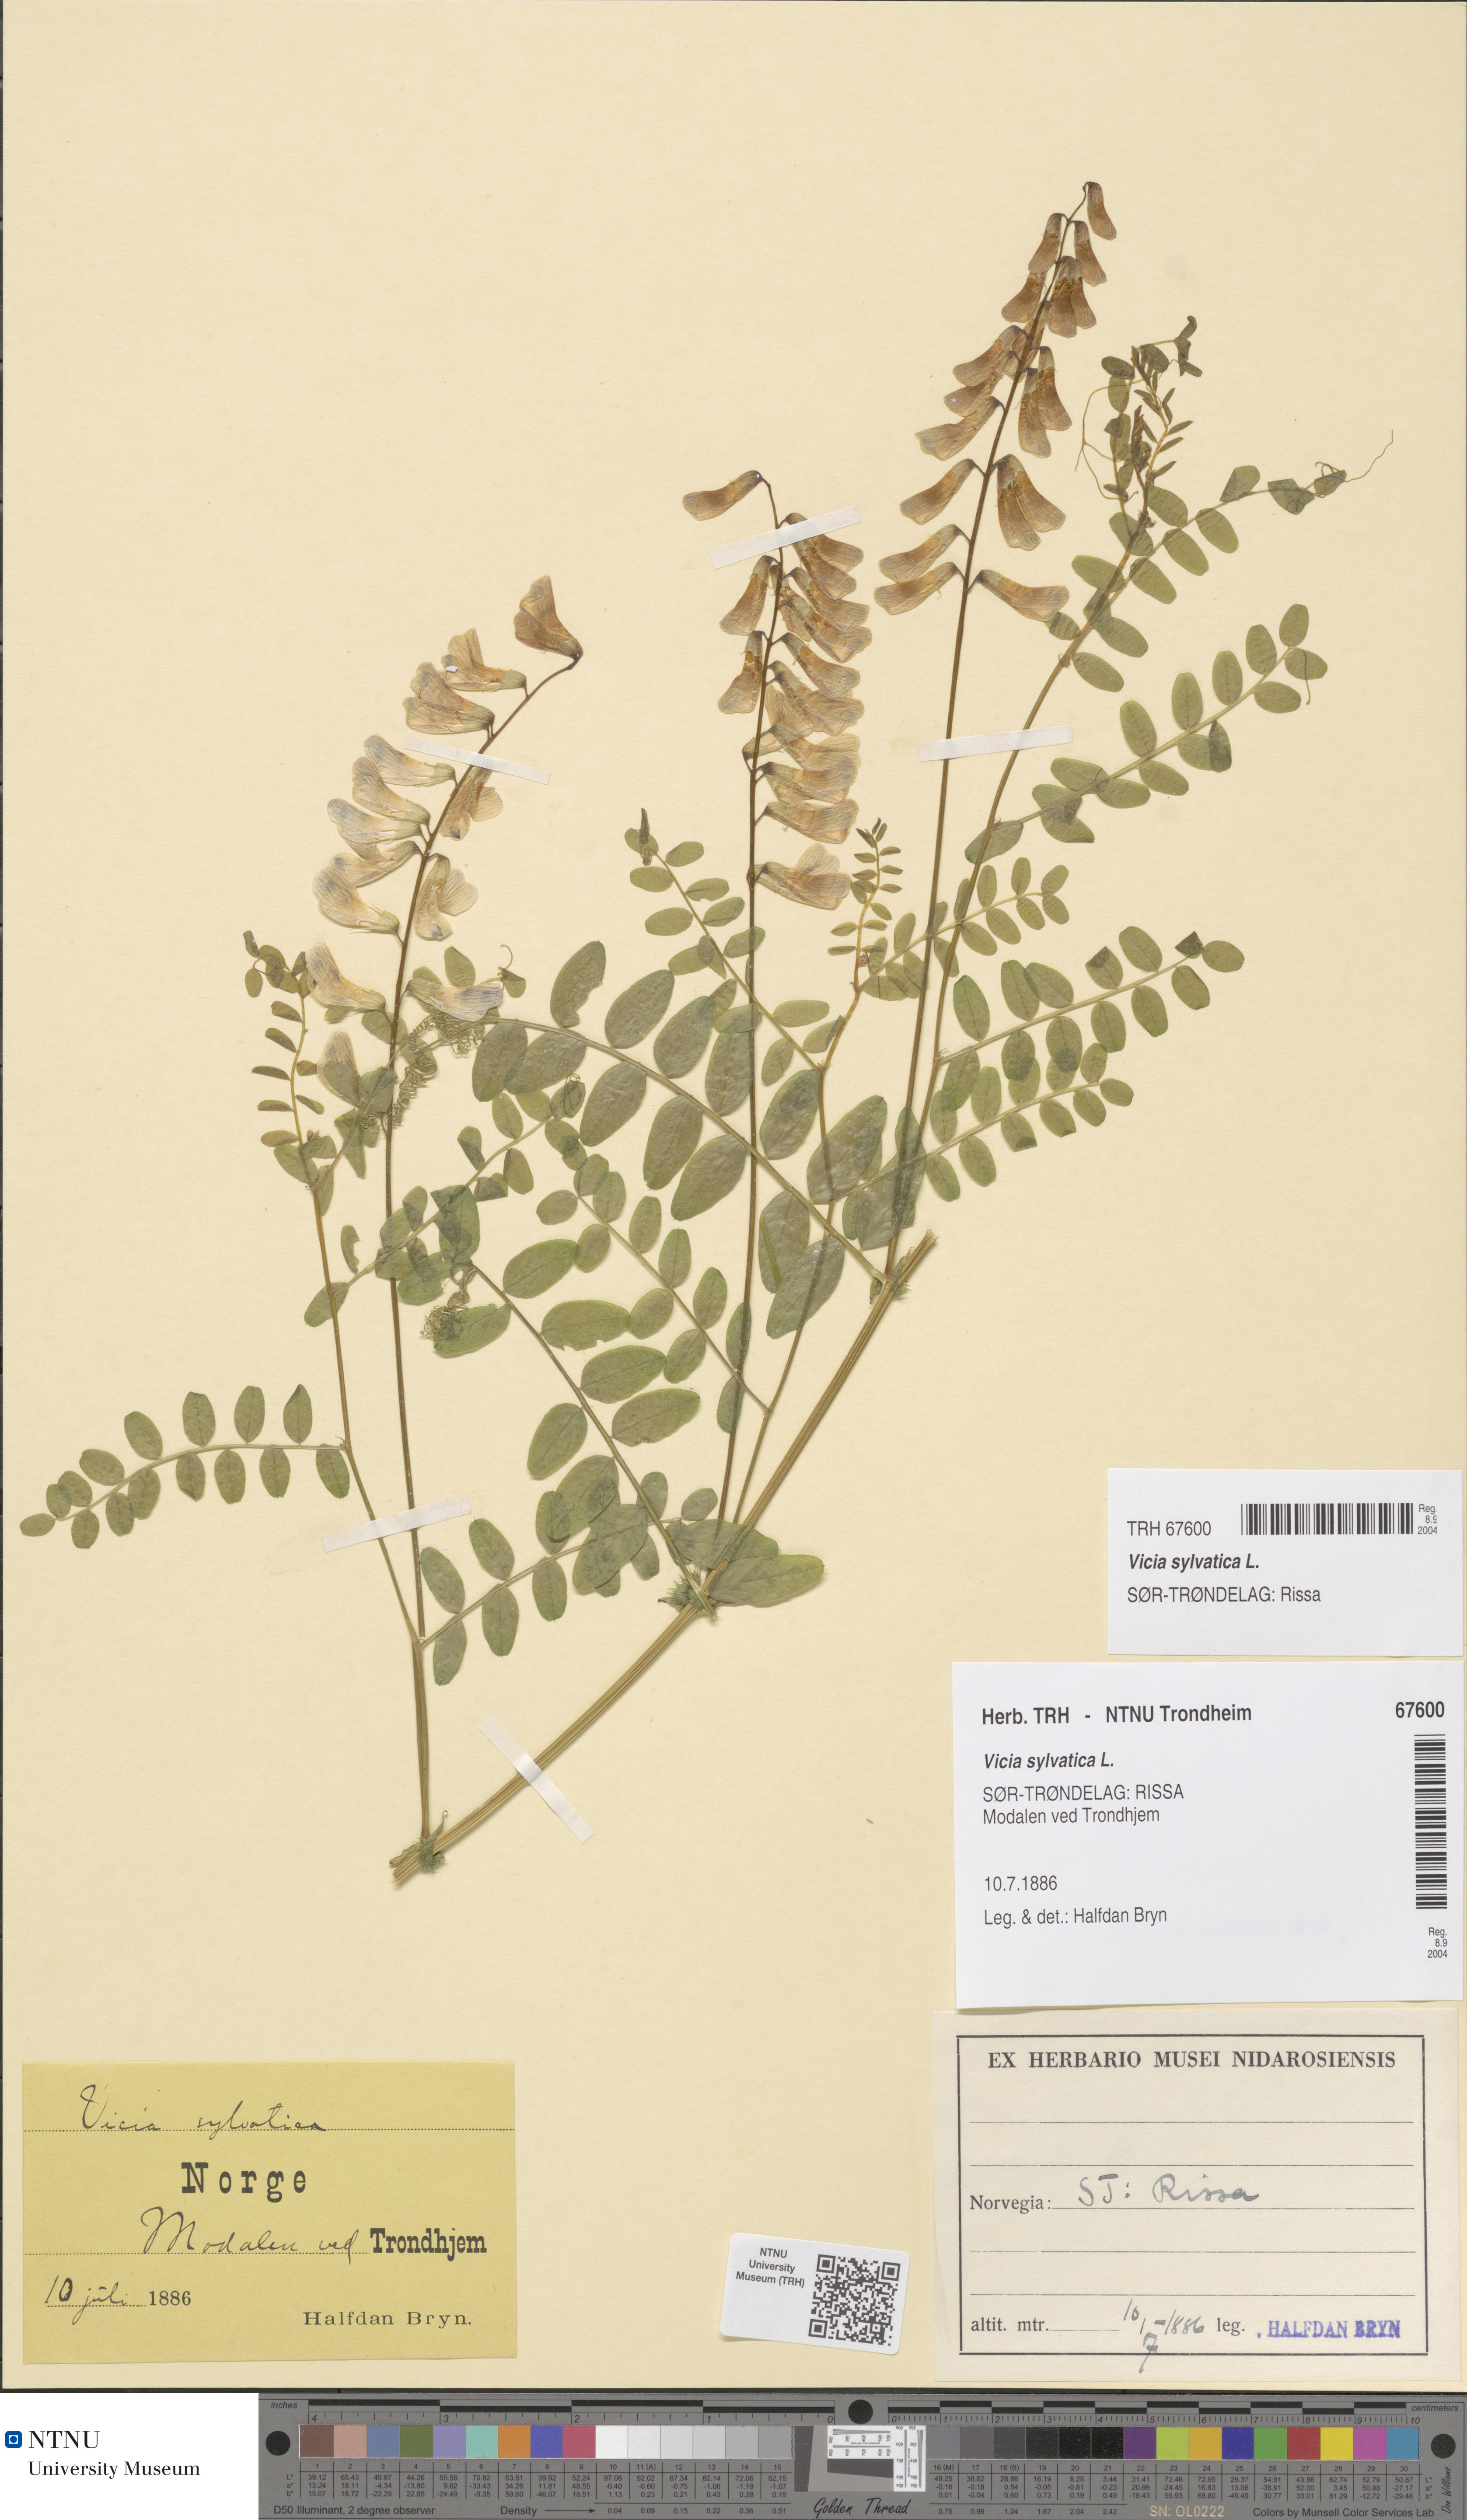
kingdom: Plantae
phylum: Tracheophyta
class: Magnoliopsida
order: Fabales
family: Fabaceae
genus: Vicia
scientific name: Vicia sylvatica
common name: Wood vetch
